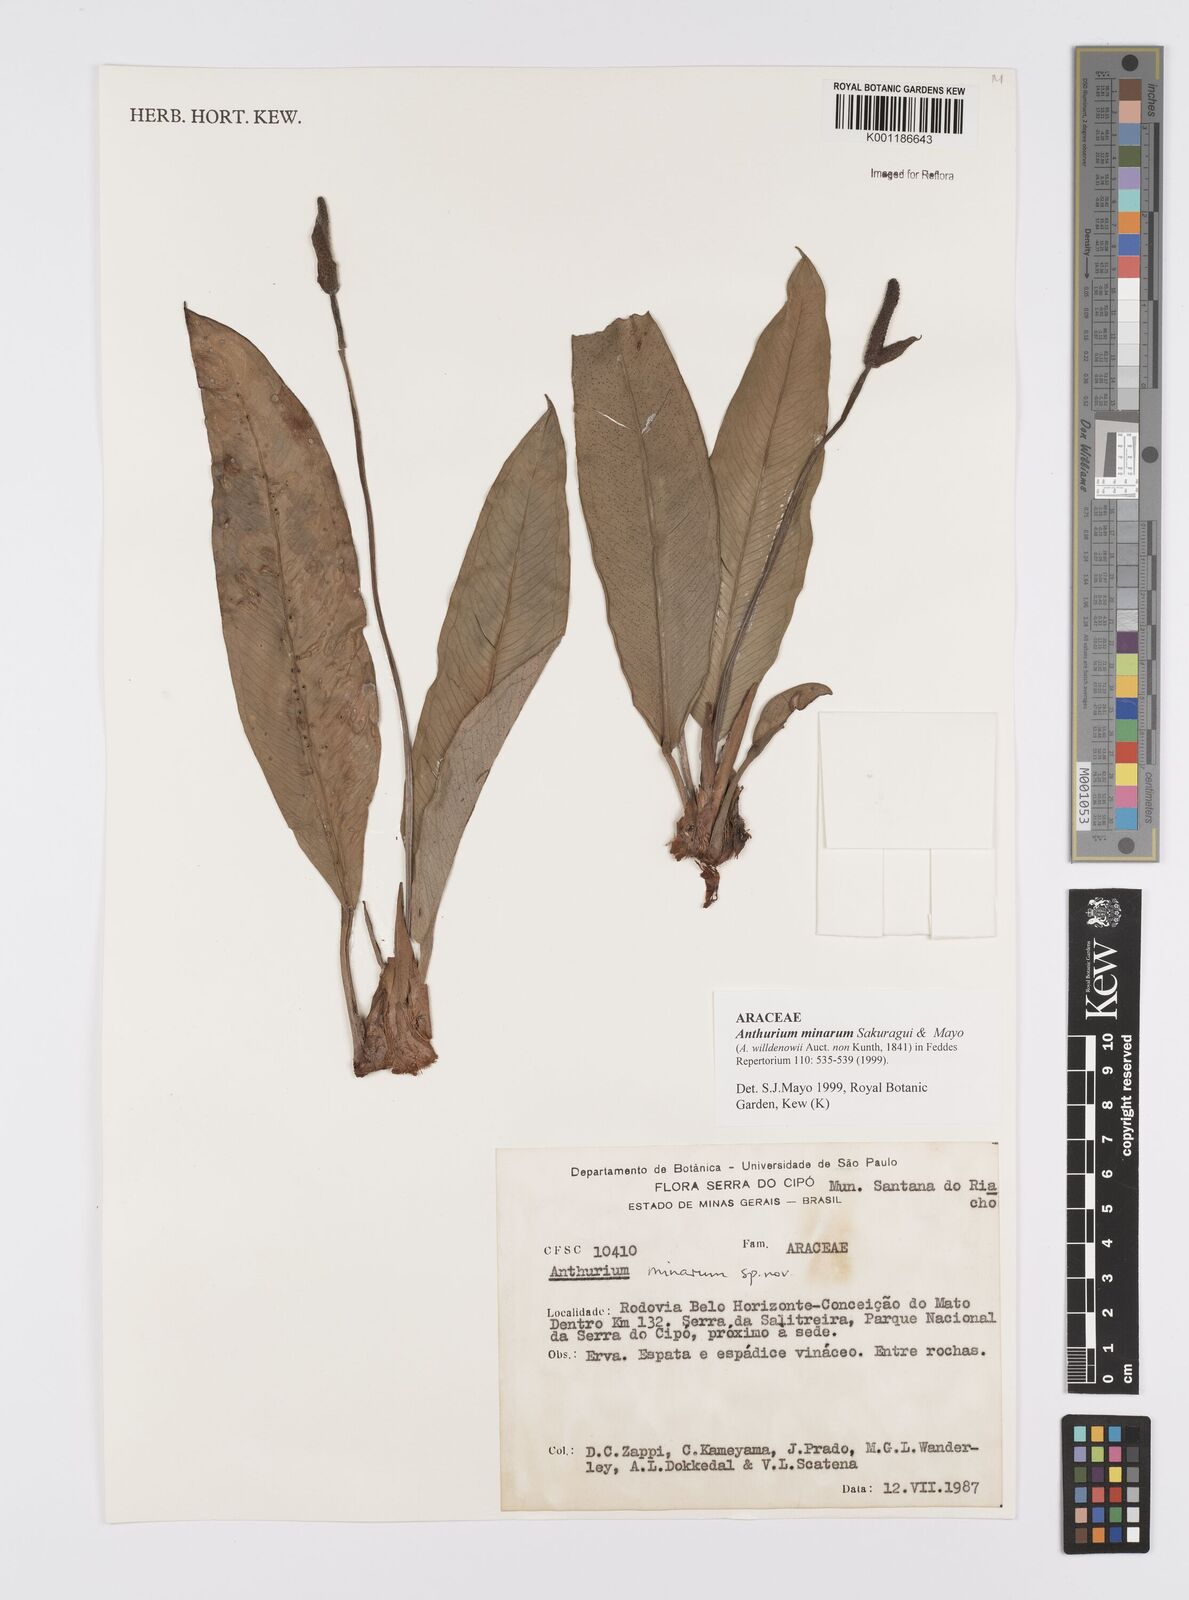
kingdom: Plantae
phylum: Tracheophyta
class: Liliopsida
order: Alismatales
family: Araceae
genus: Anthurium
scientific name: Anthurium minarum
